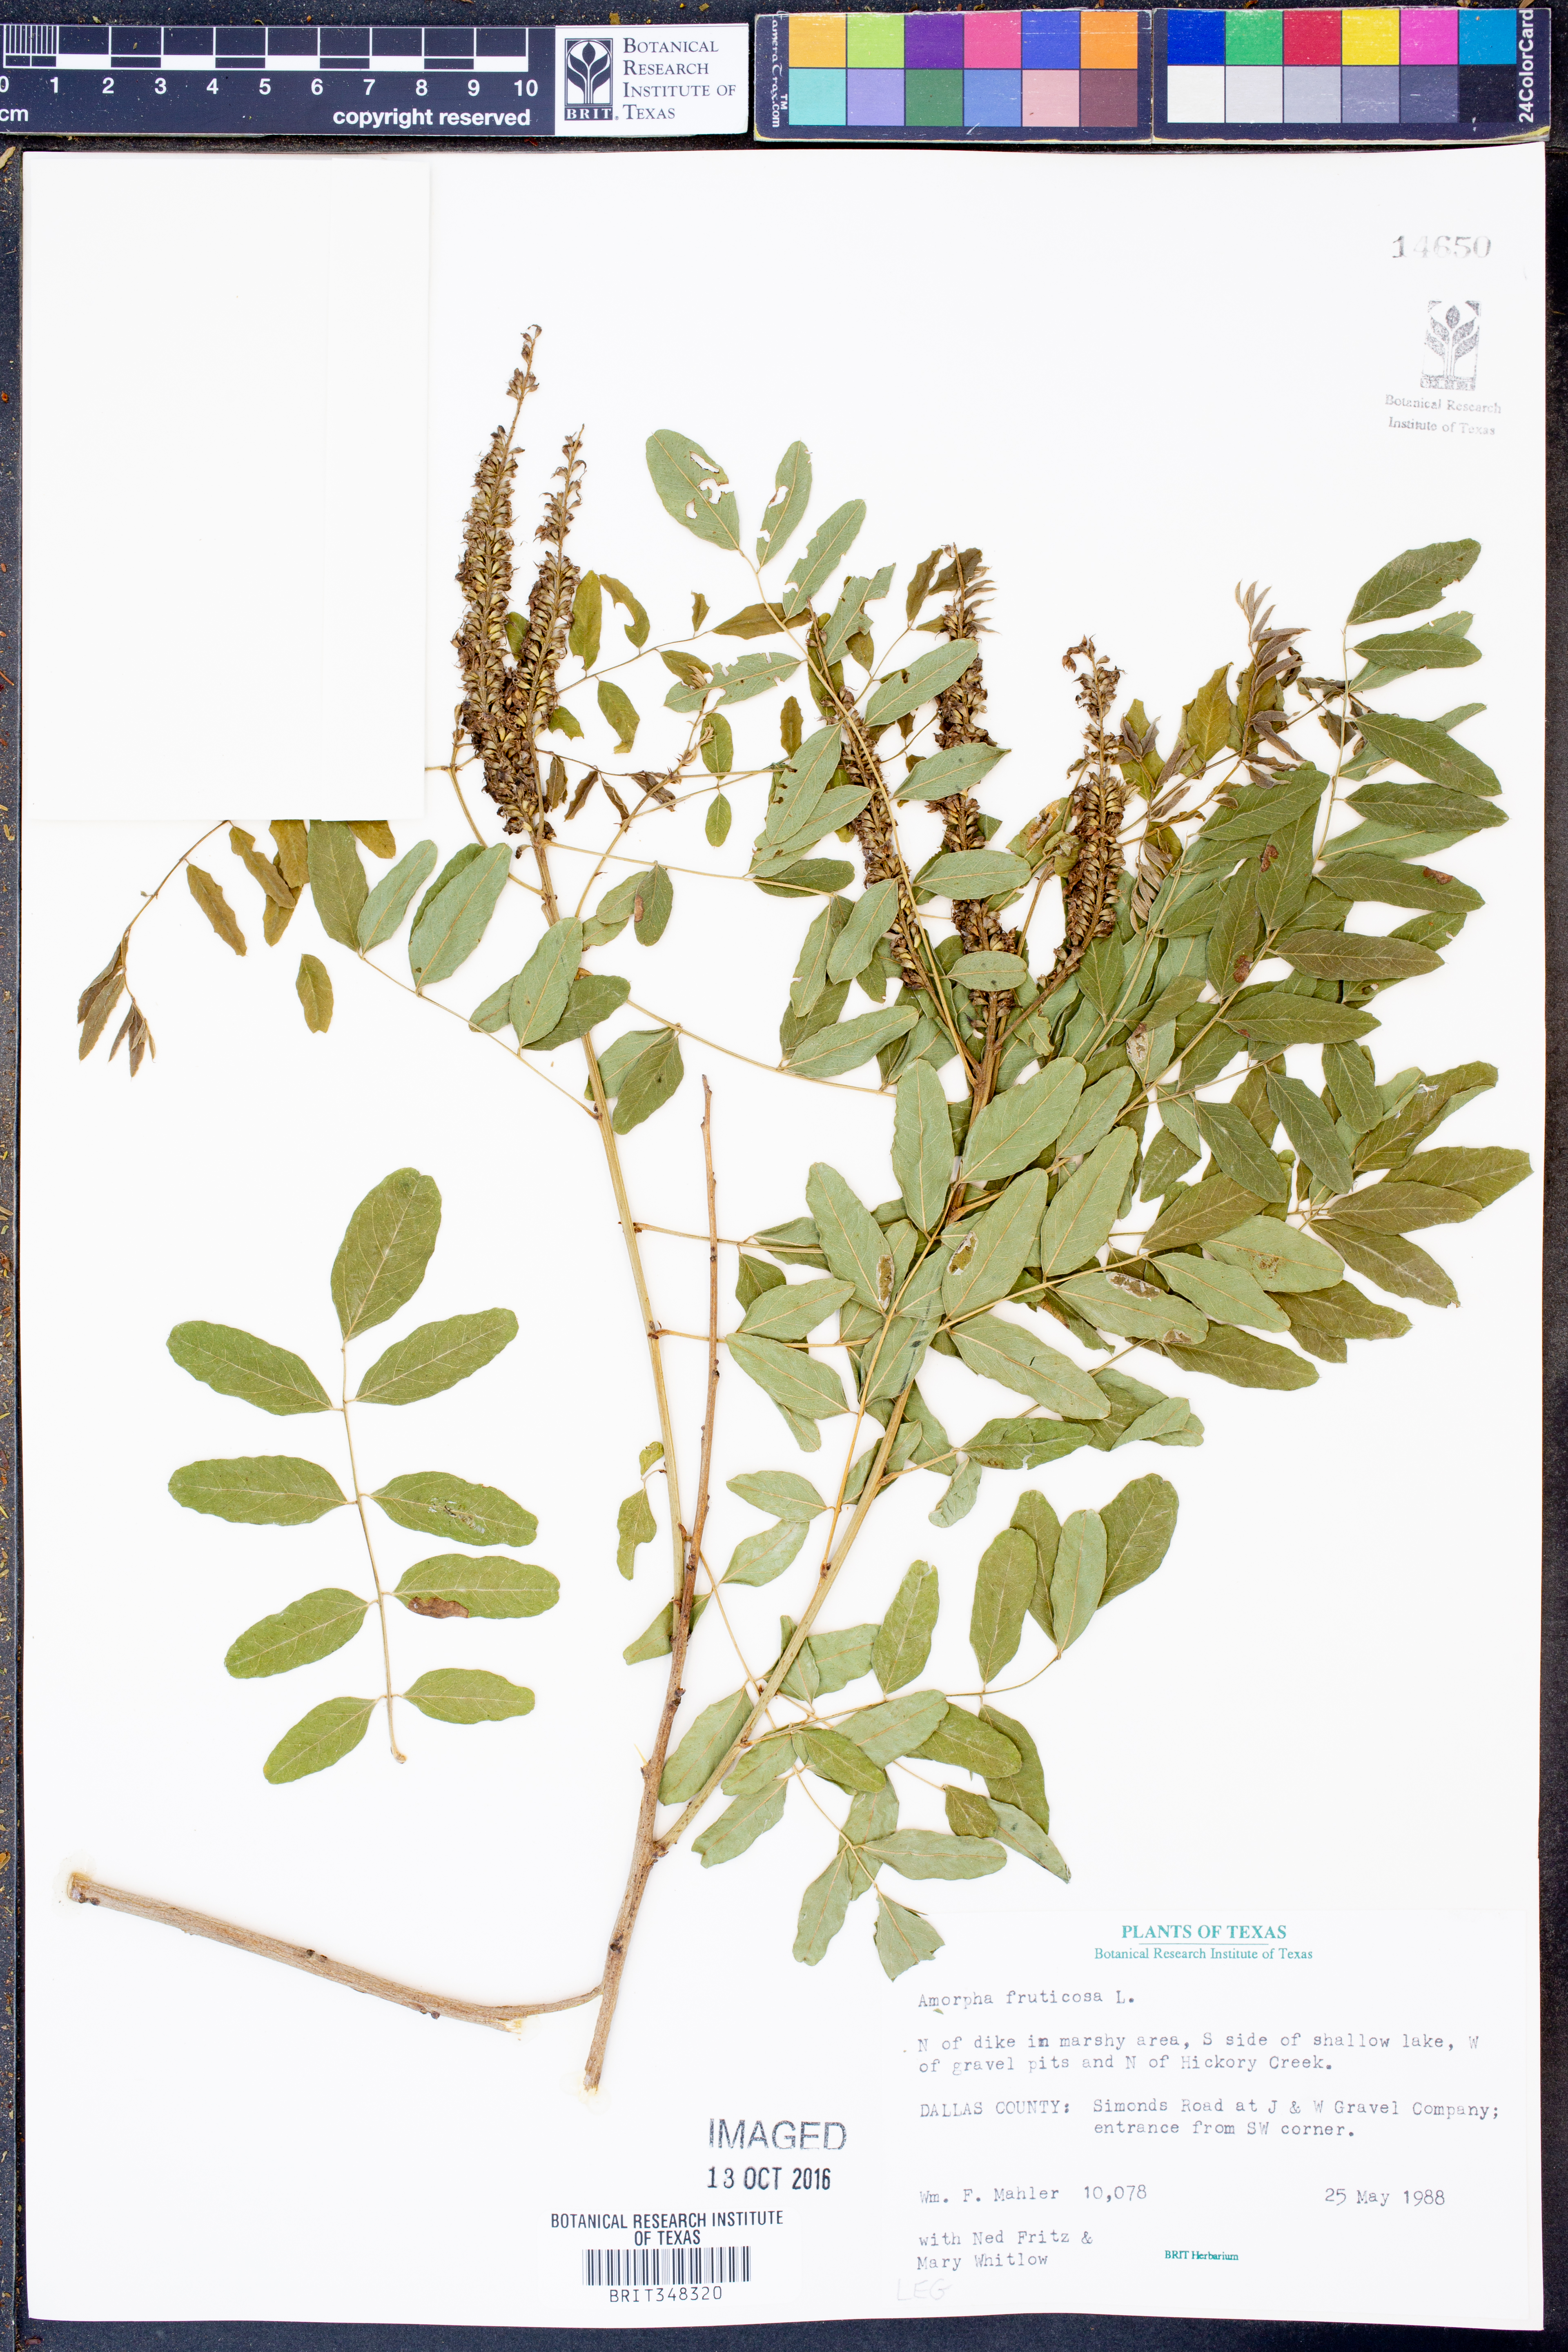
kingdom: Plantae
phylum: Tracheophyta
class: Magnoliopsida
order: Fabales
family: Fabaceae
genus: Amorpha
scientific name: Amorpha fruticosa
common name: False indigo
